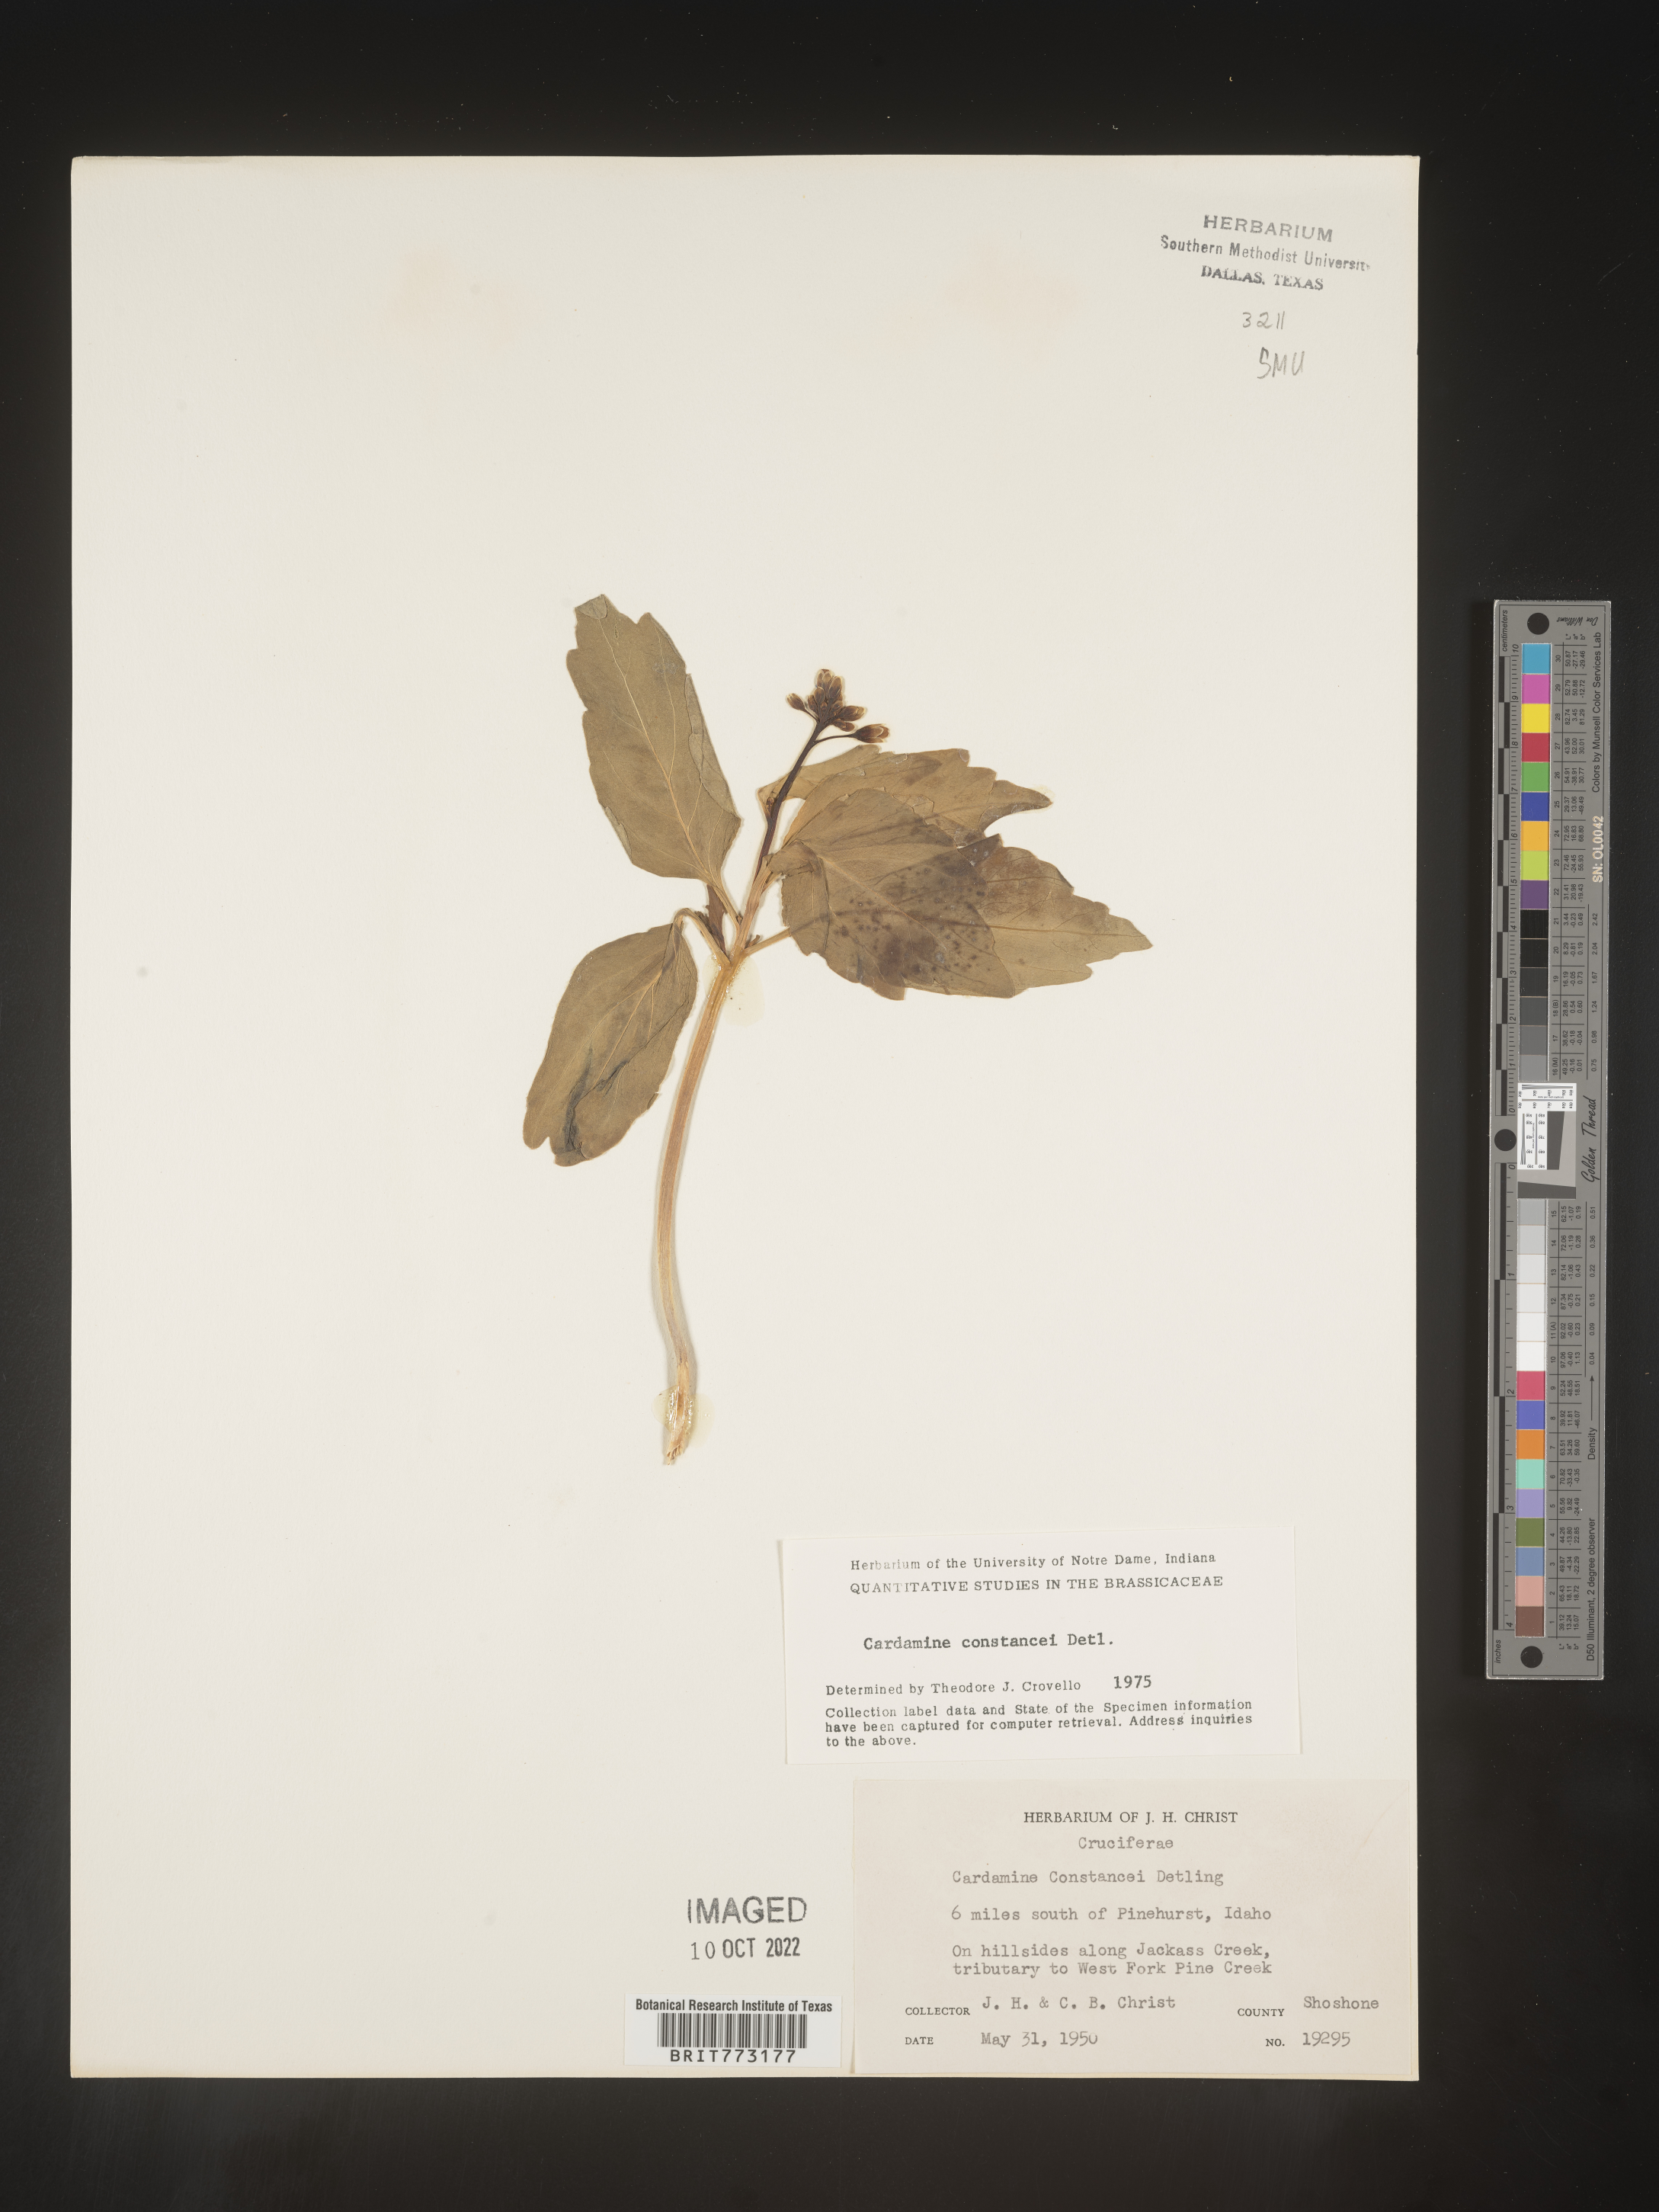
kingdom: Plantae
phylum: Tracheophyta
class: Magnoliopsida
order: Brassicales
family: Brassicaceae
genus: Cardamine
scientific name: Cardamine
